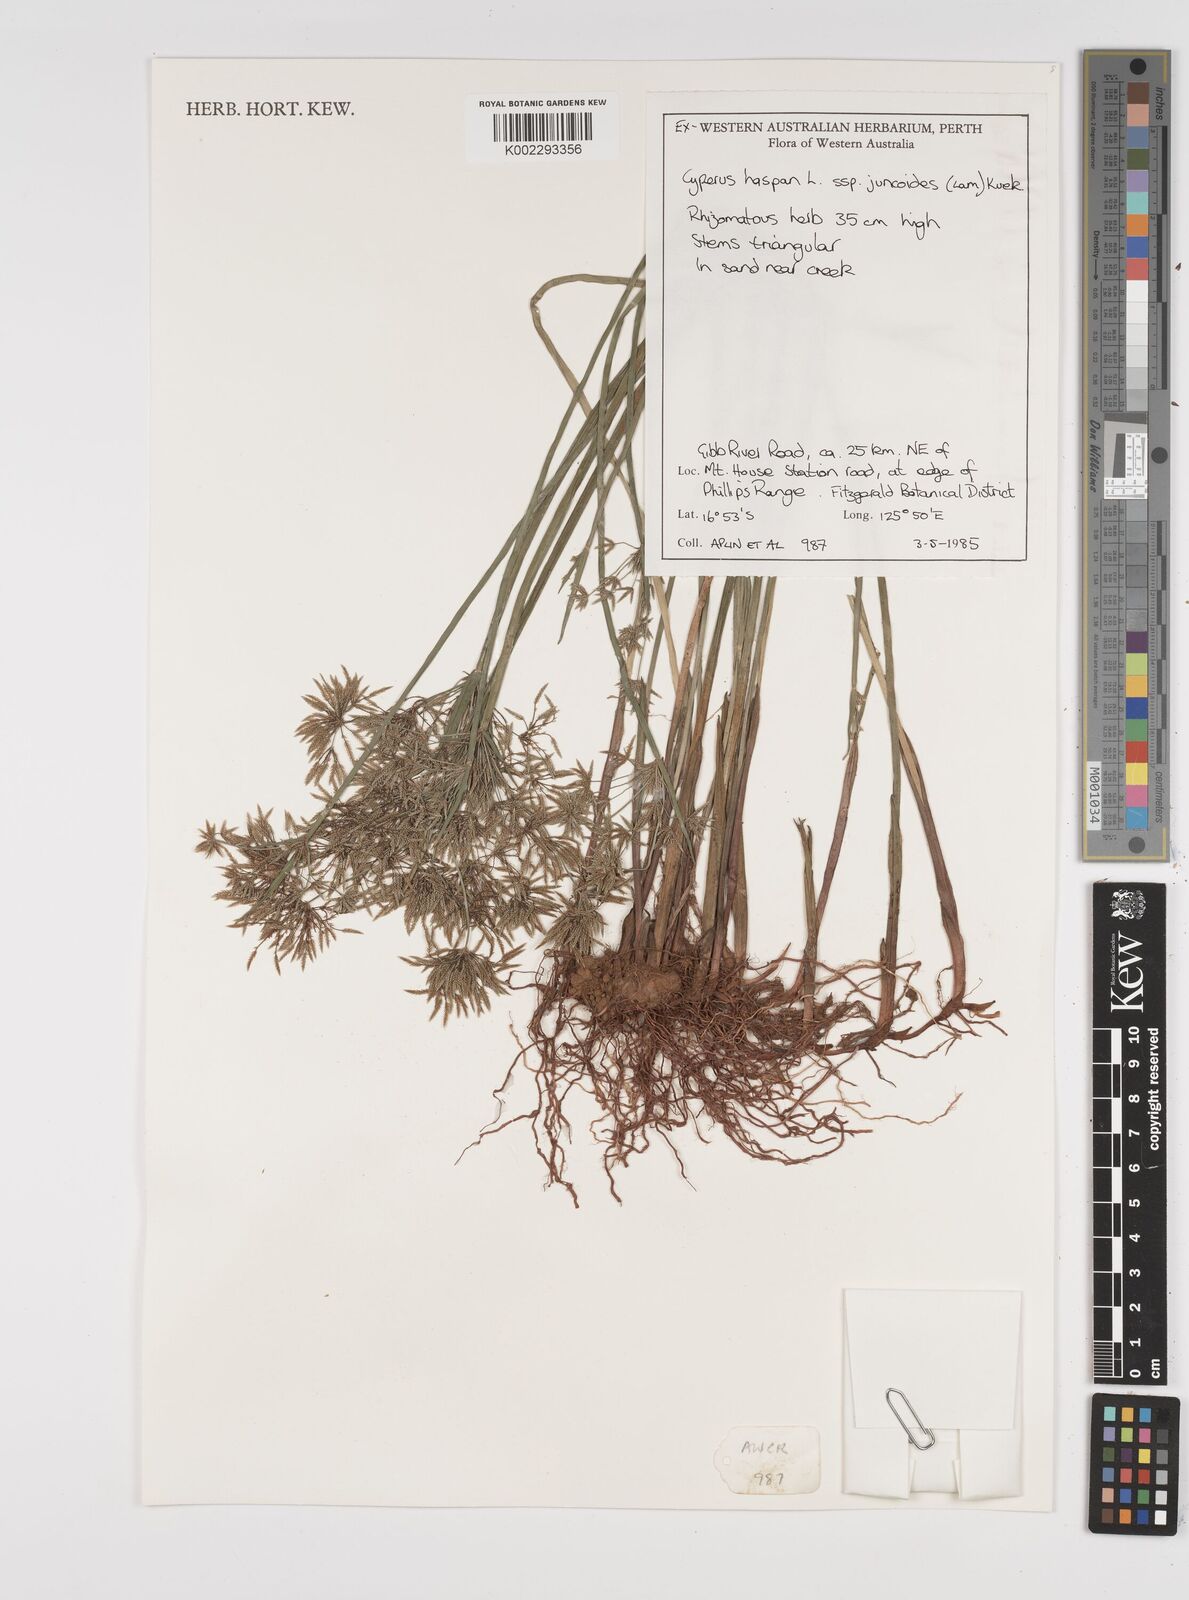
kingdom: Plantae
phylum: Tracheophyta
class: Liliopsida
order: Poales
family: Cyperaceae
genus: Cyperus
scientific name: Cyperus haspan
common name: Haspan flatsedge
